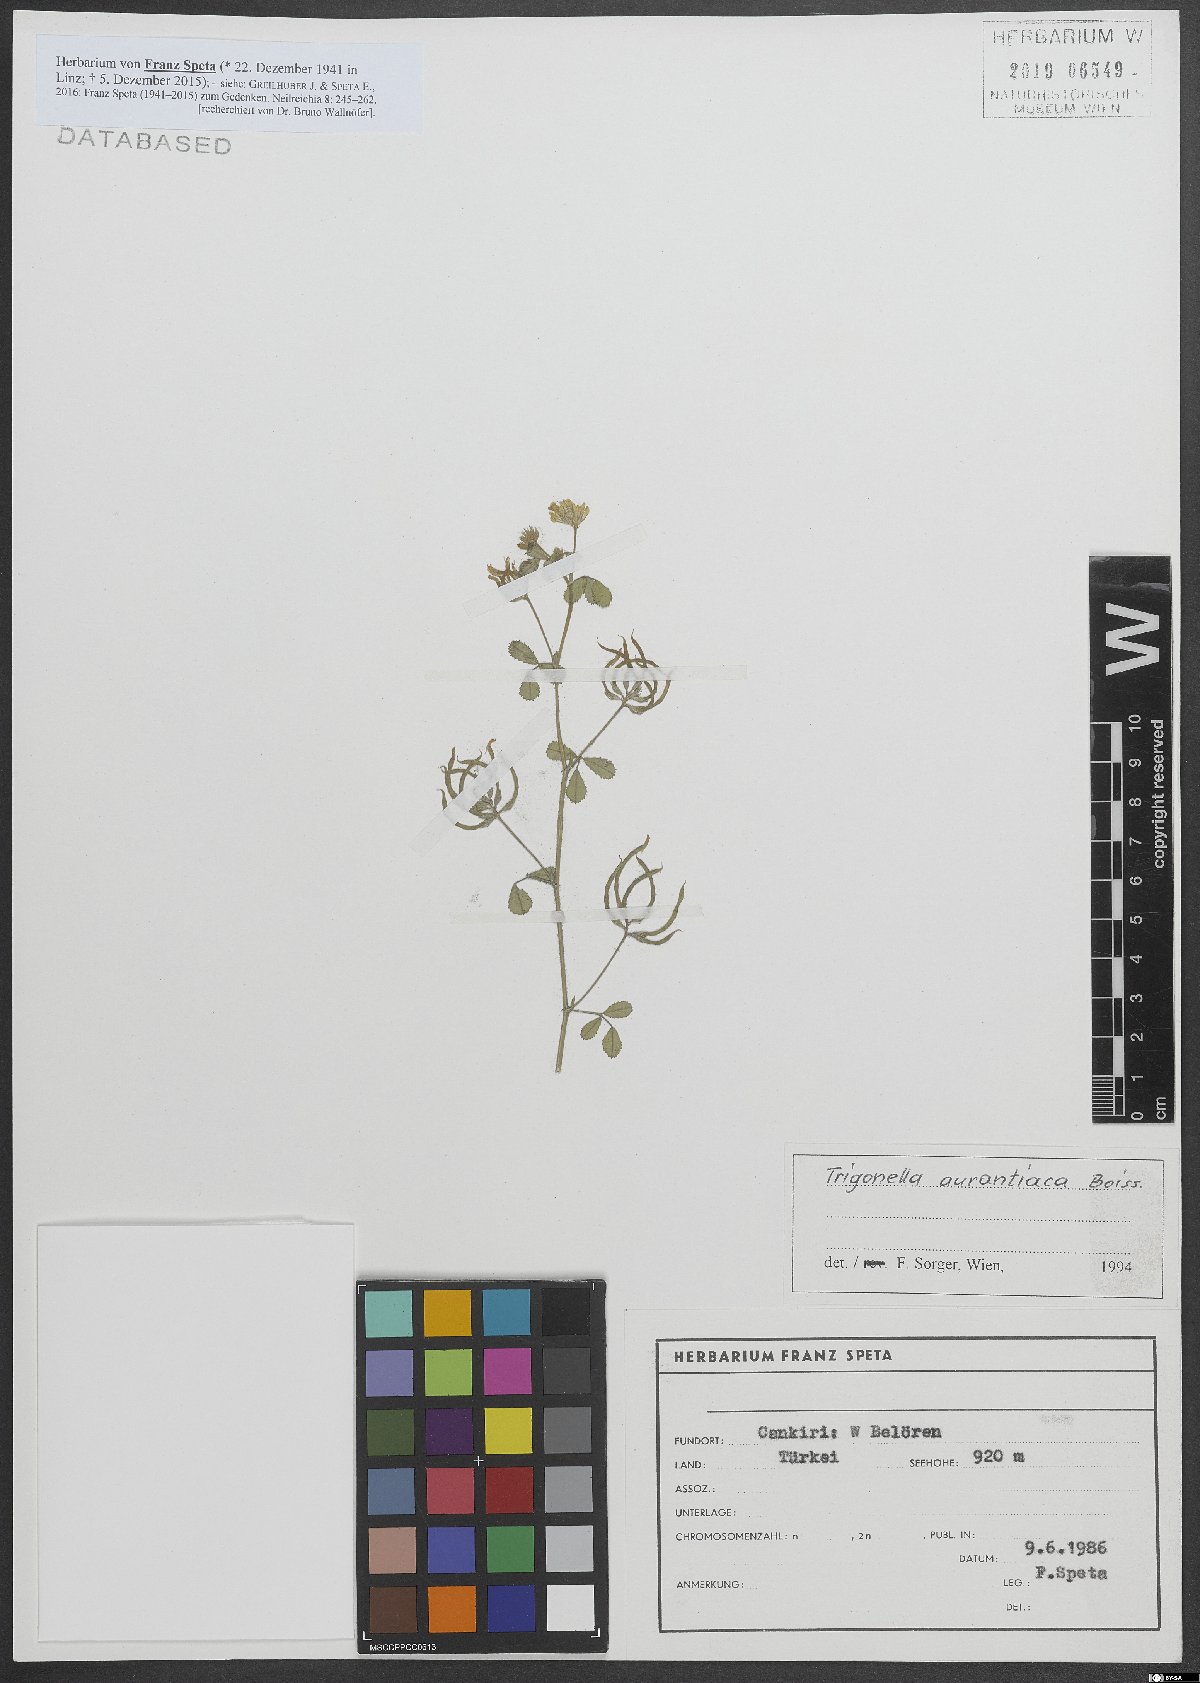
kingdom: Plantae
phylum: Tracheophyta
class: Magnoliopsida
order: Fabales
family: Fabaceae
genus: Medicago
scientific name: Medicago phrygia
